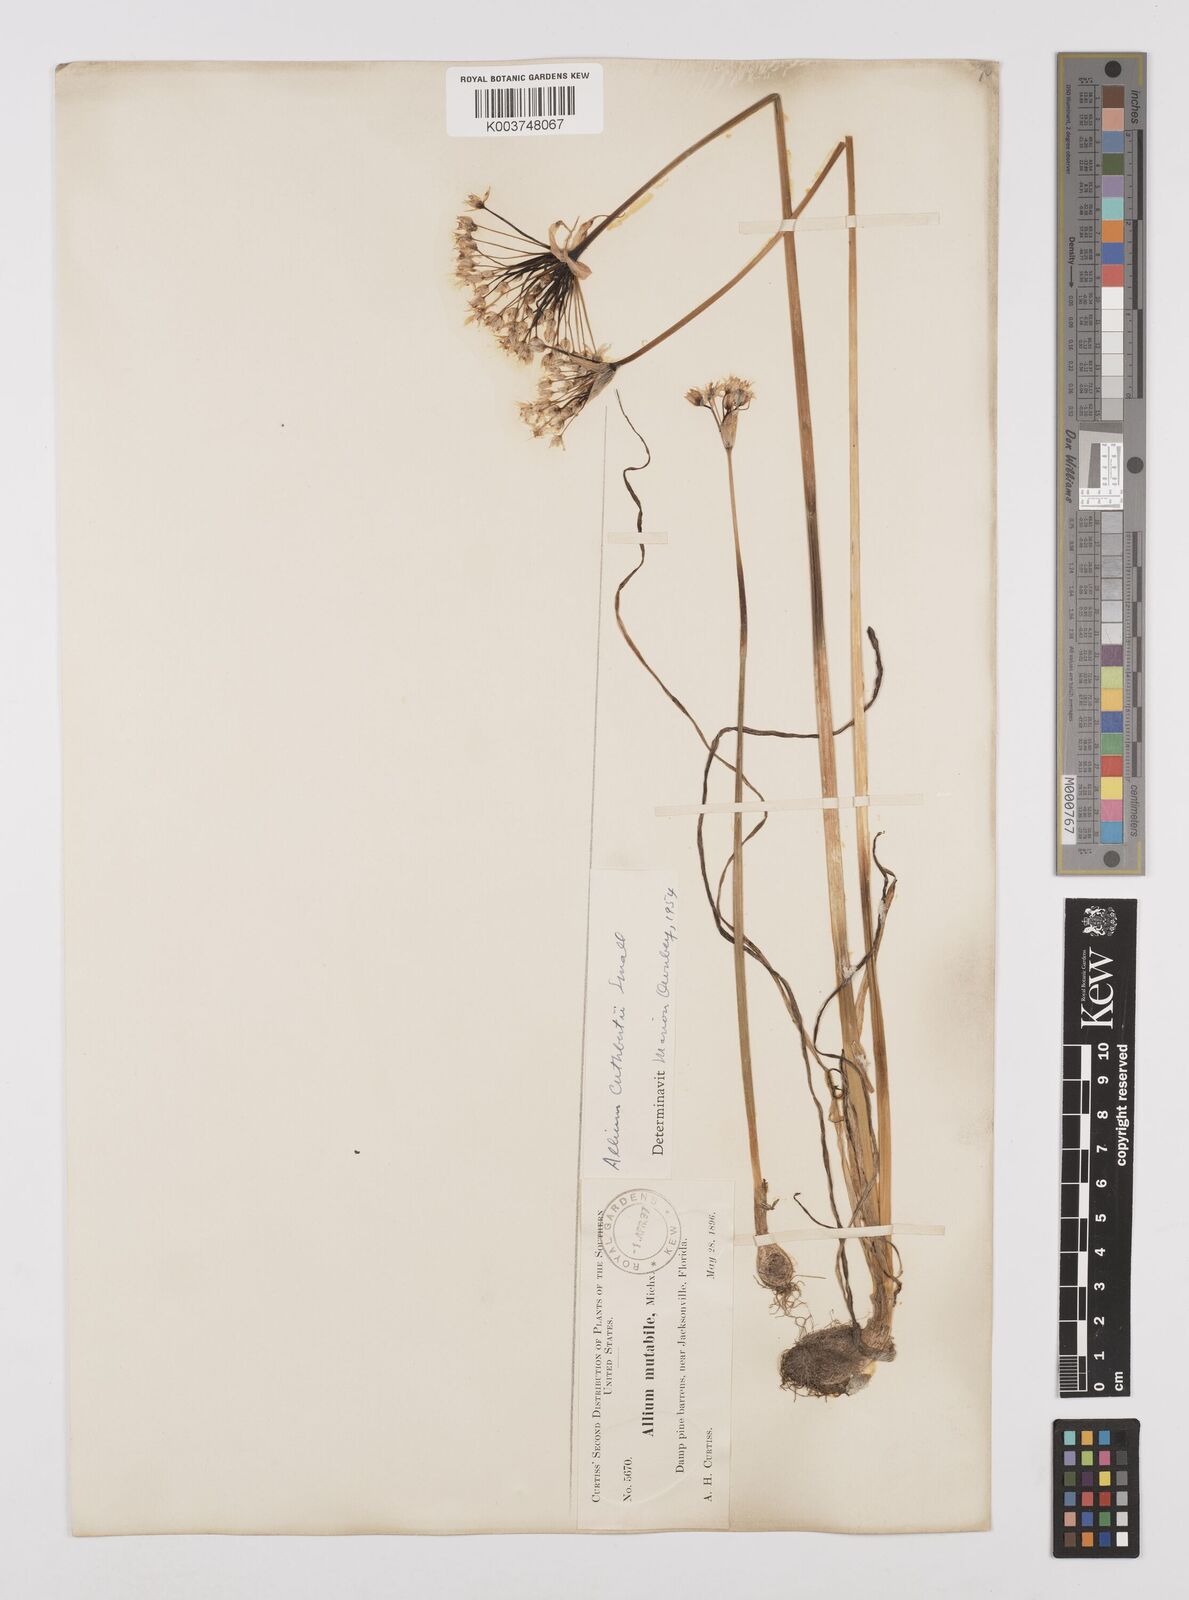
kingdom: Plantae
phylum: Tracheophyta
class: Liliopsida
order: Asparagales
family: Amaryllidaceae
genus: Allium
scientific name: Allium cuthbertii
